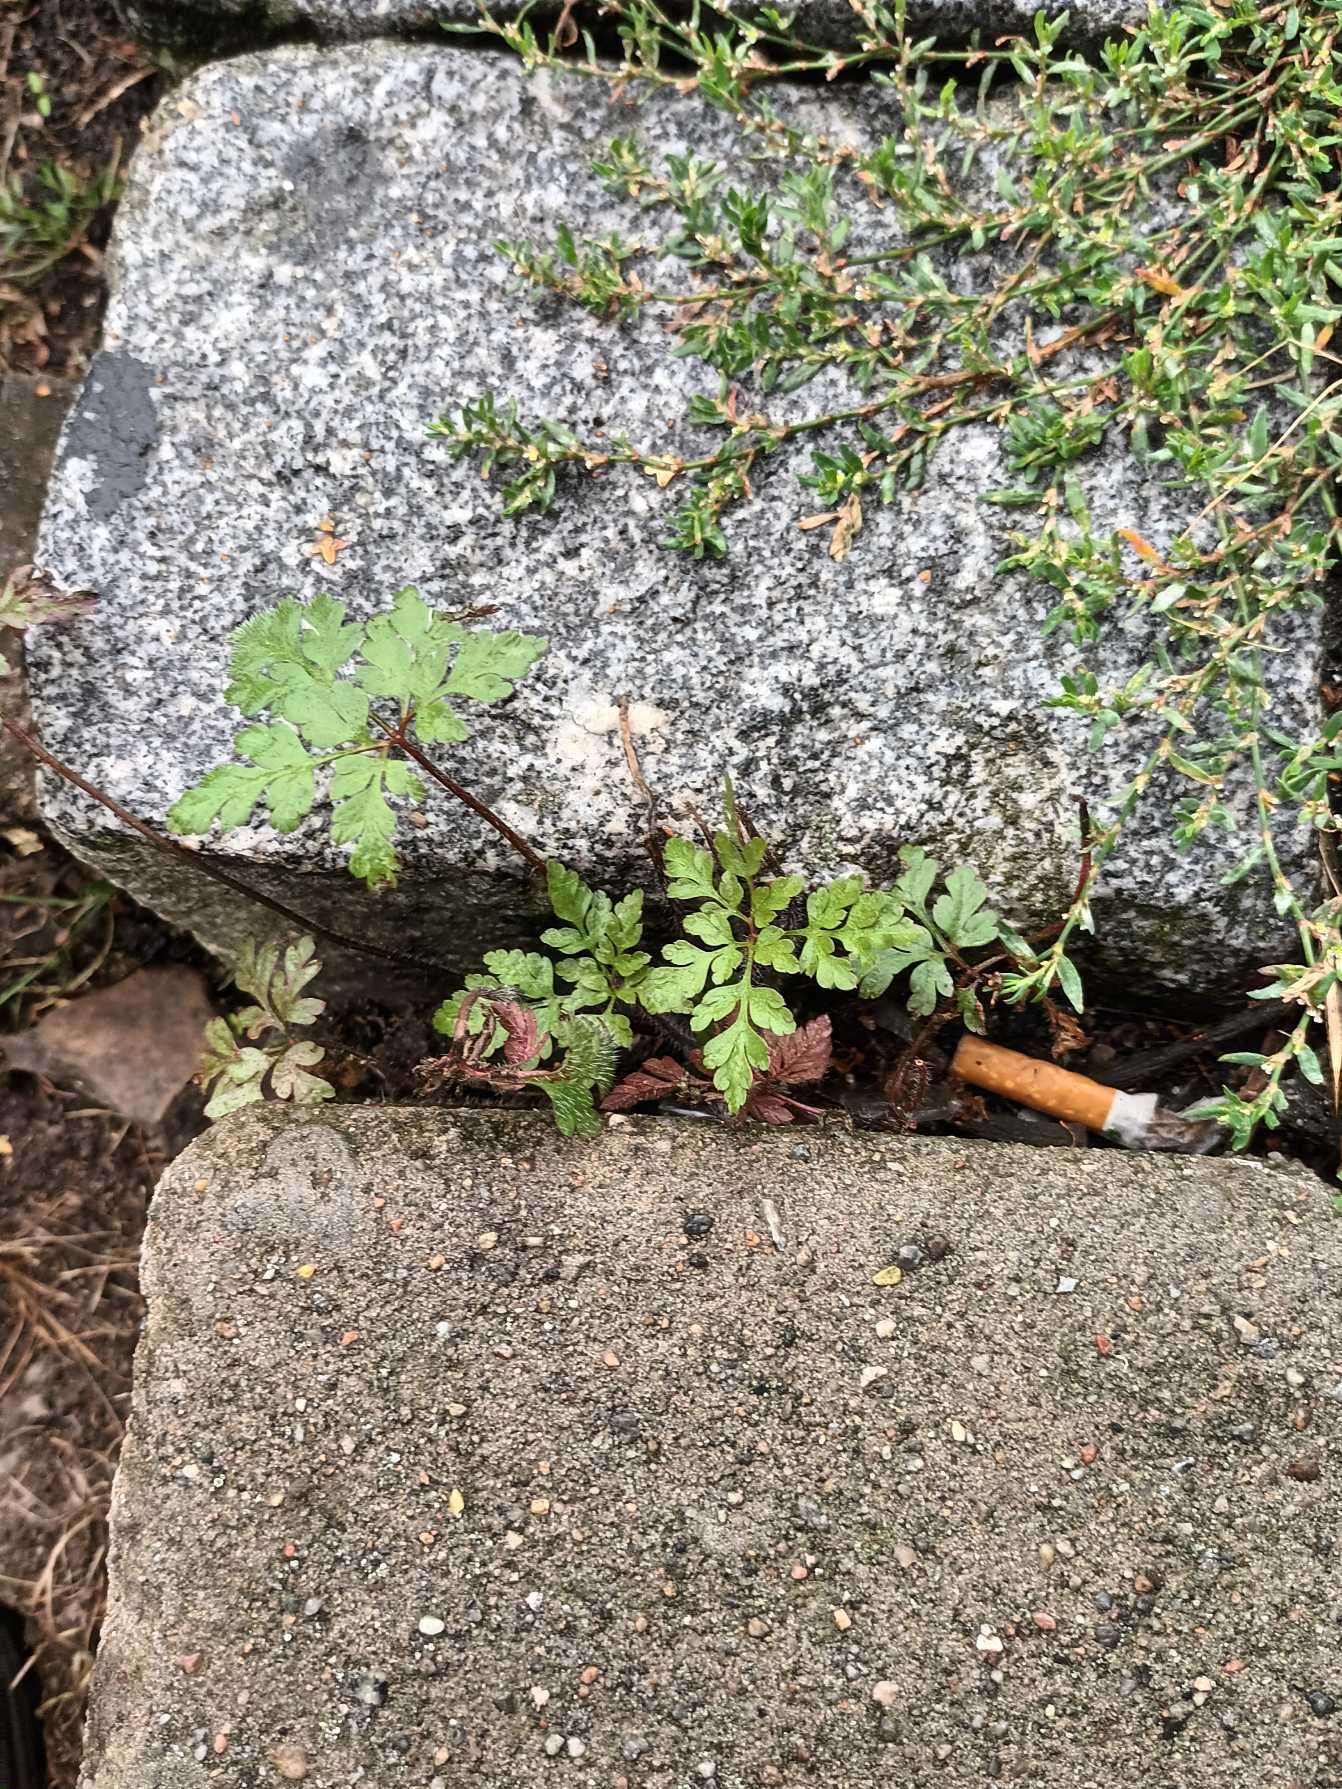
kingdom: Plantae
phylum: Tracheophyta
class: Magnoliopsida
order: Geraniales
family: Geraniaceae
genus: Geranium
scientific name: Geranium robertianum
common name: Stinkende storkenæb
